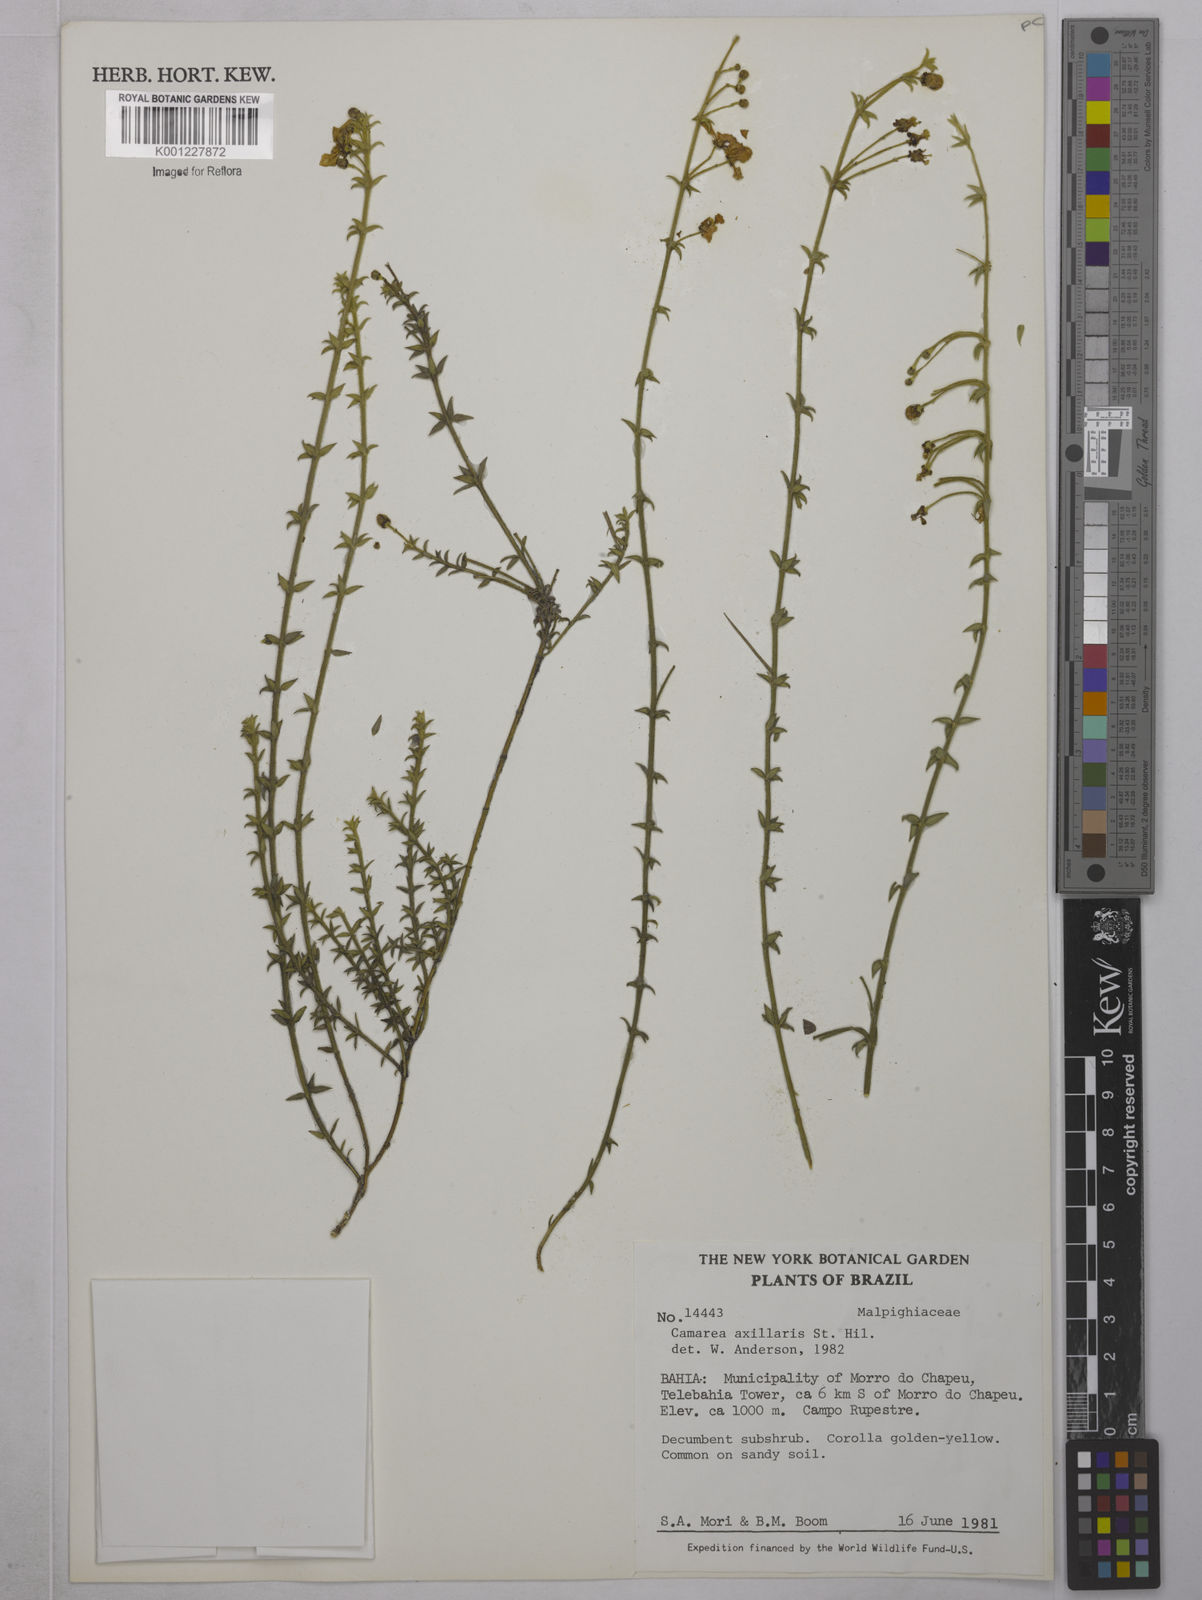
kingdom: Plantae
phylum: Tracheophyta
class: Magnoliopsida
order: Malpighiales
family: Malpighiaceae
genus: Camarea
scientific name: Camarea axillaris
